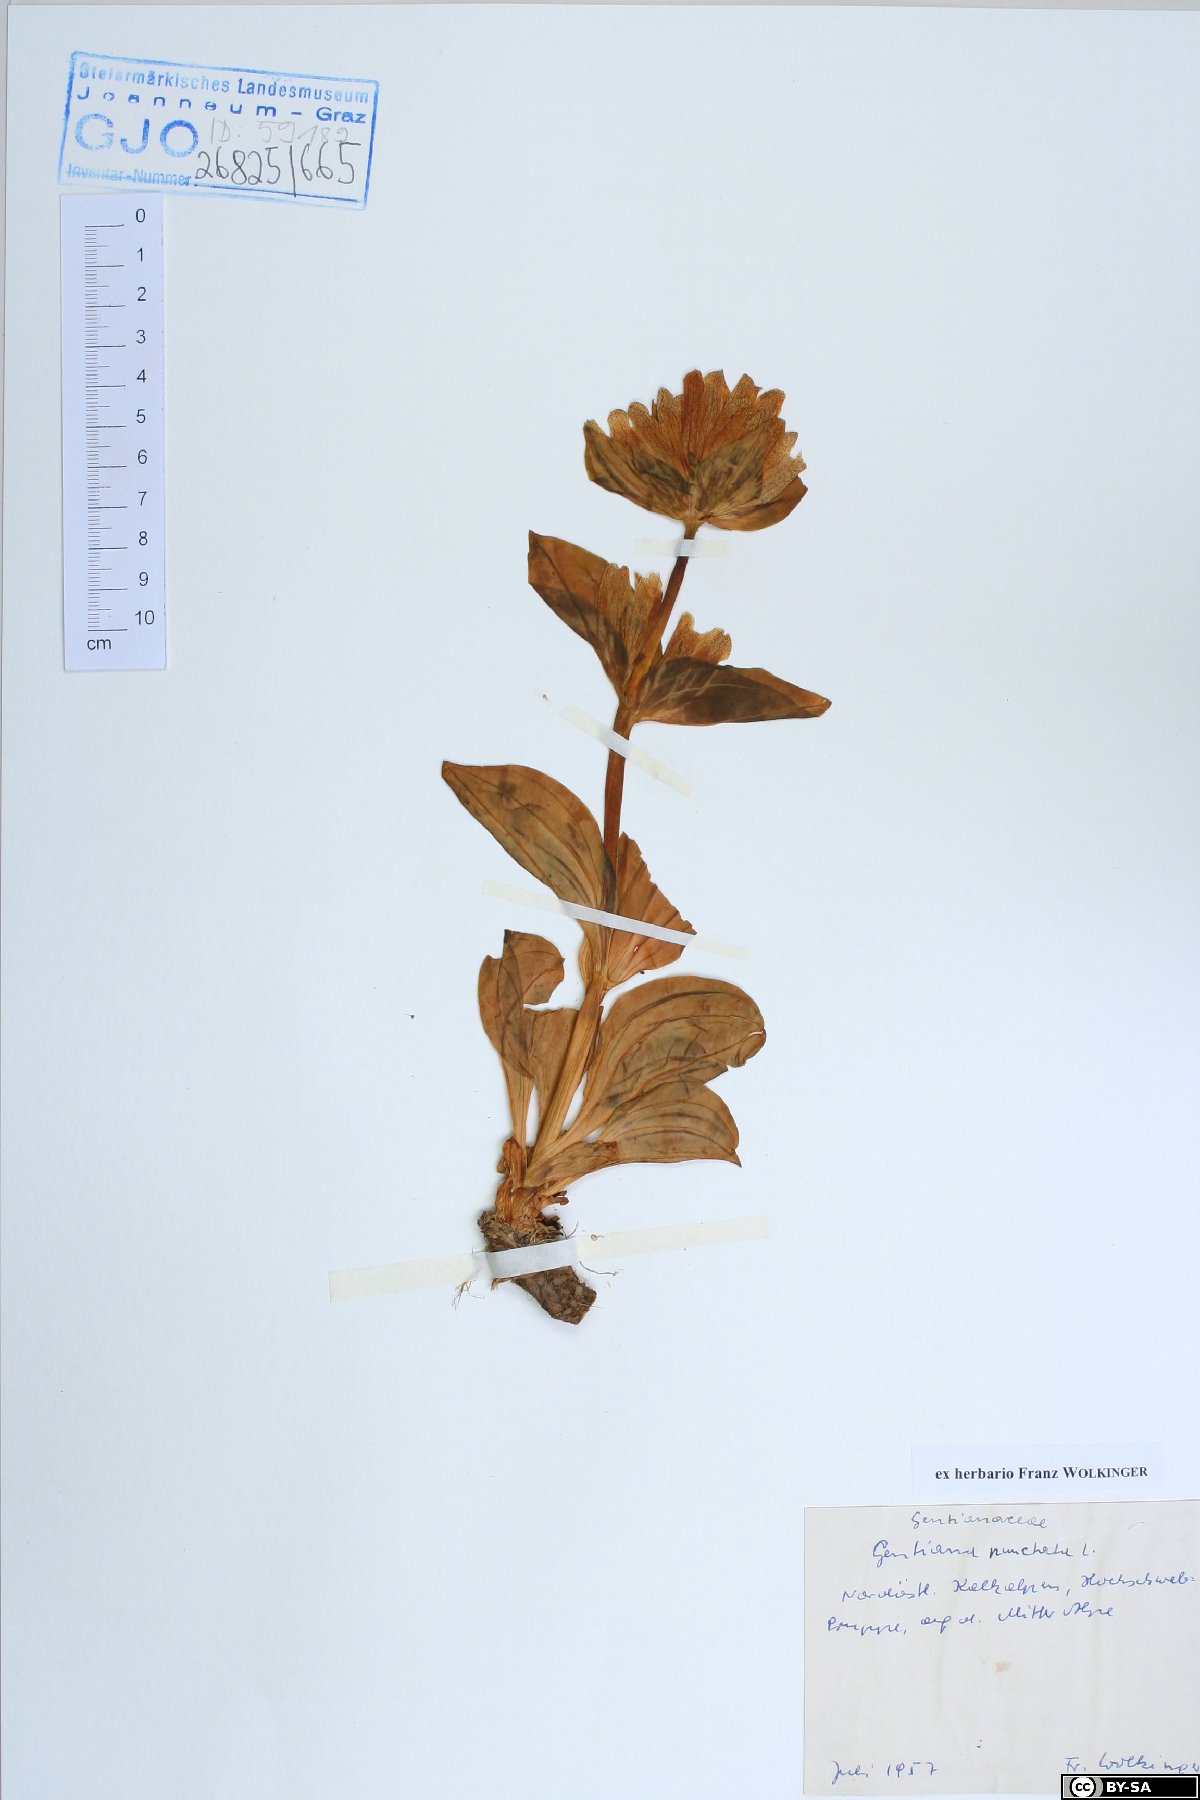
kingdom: Plantae
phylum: Tracheophyta
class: Magnoliopsida
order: Gentianales
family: Gentianaceae
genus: Gentiana
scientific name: Gentiana punctata
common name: Spotted gentian
